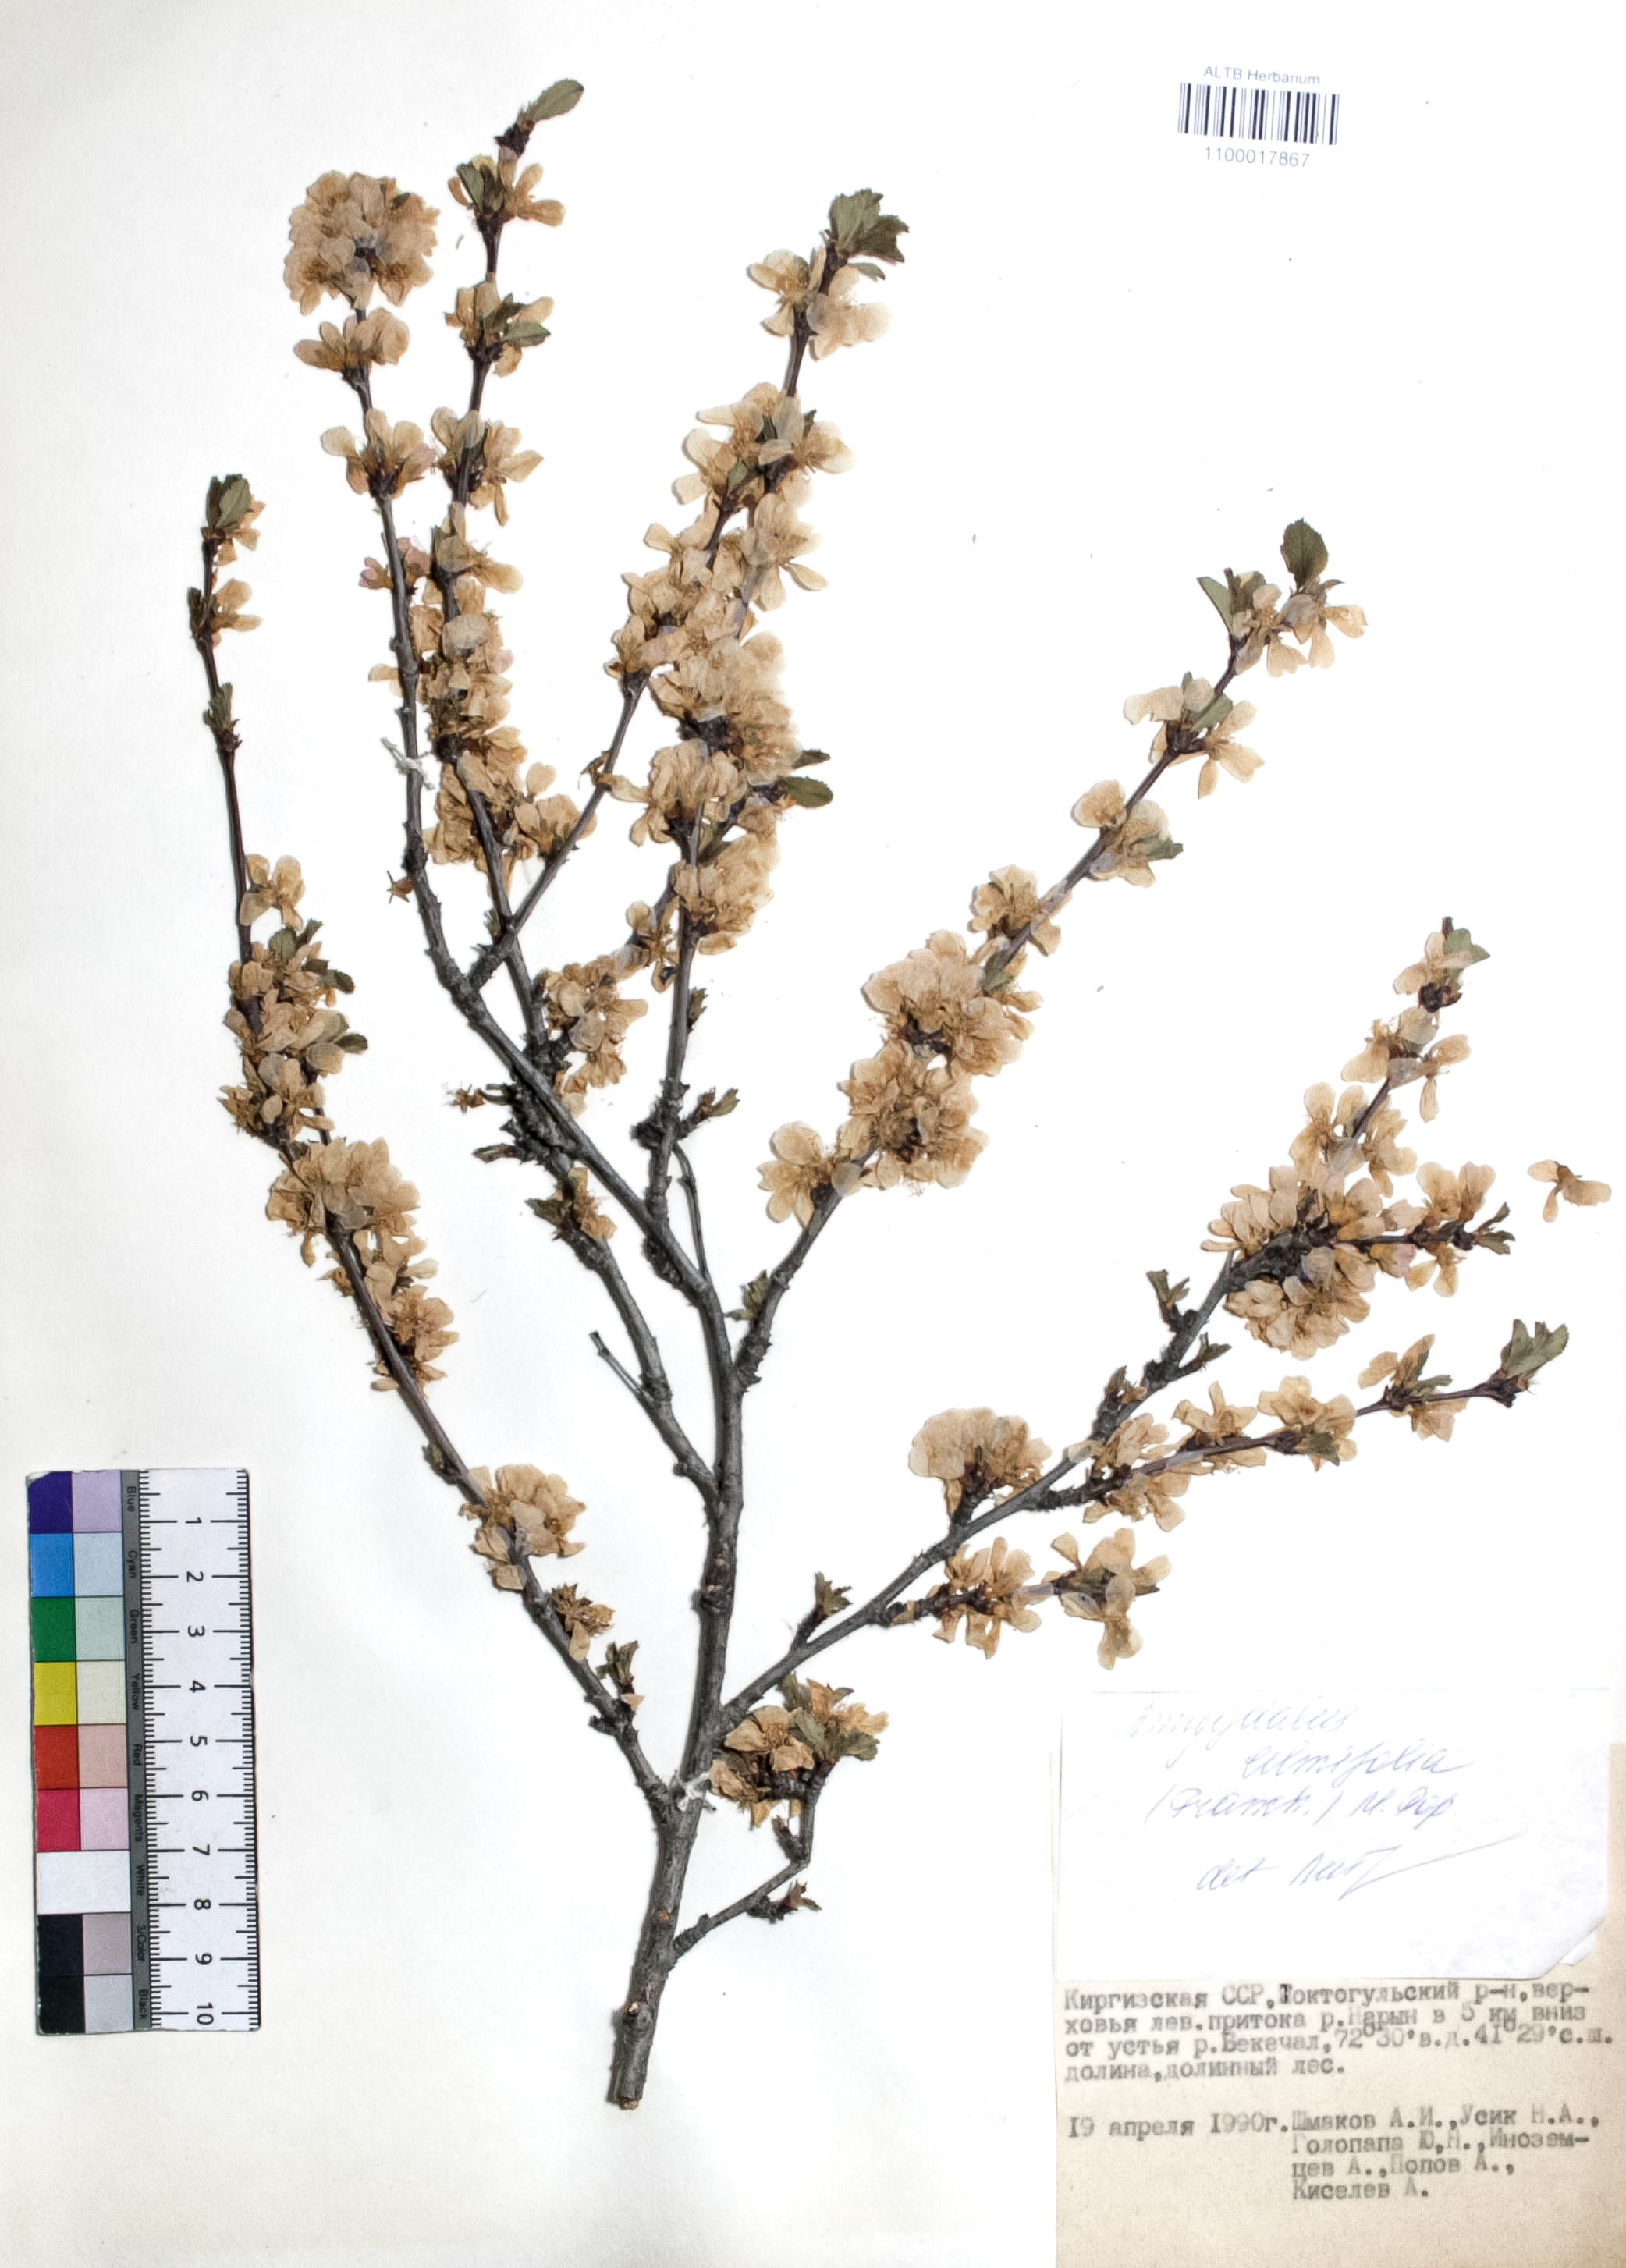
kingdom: Plantae
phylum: Tracheophyta
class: Magnoliopsida
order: Rosales
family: Rosaceae
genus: Prunus
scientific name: Prunus triloba
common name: Flowering plum
